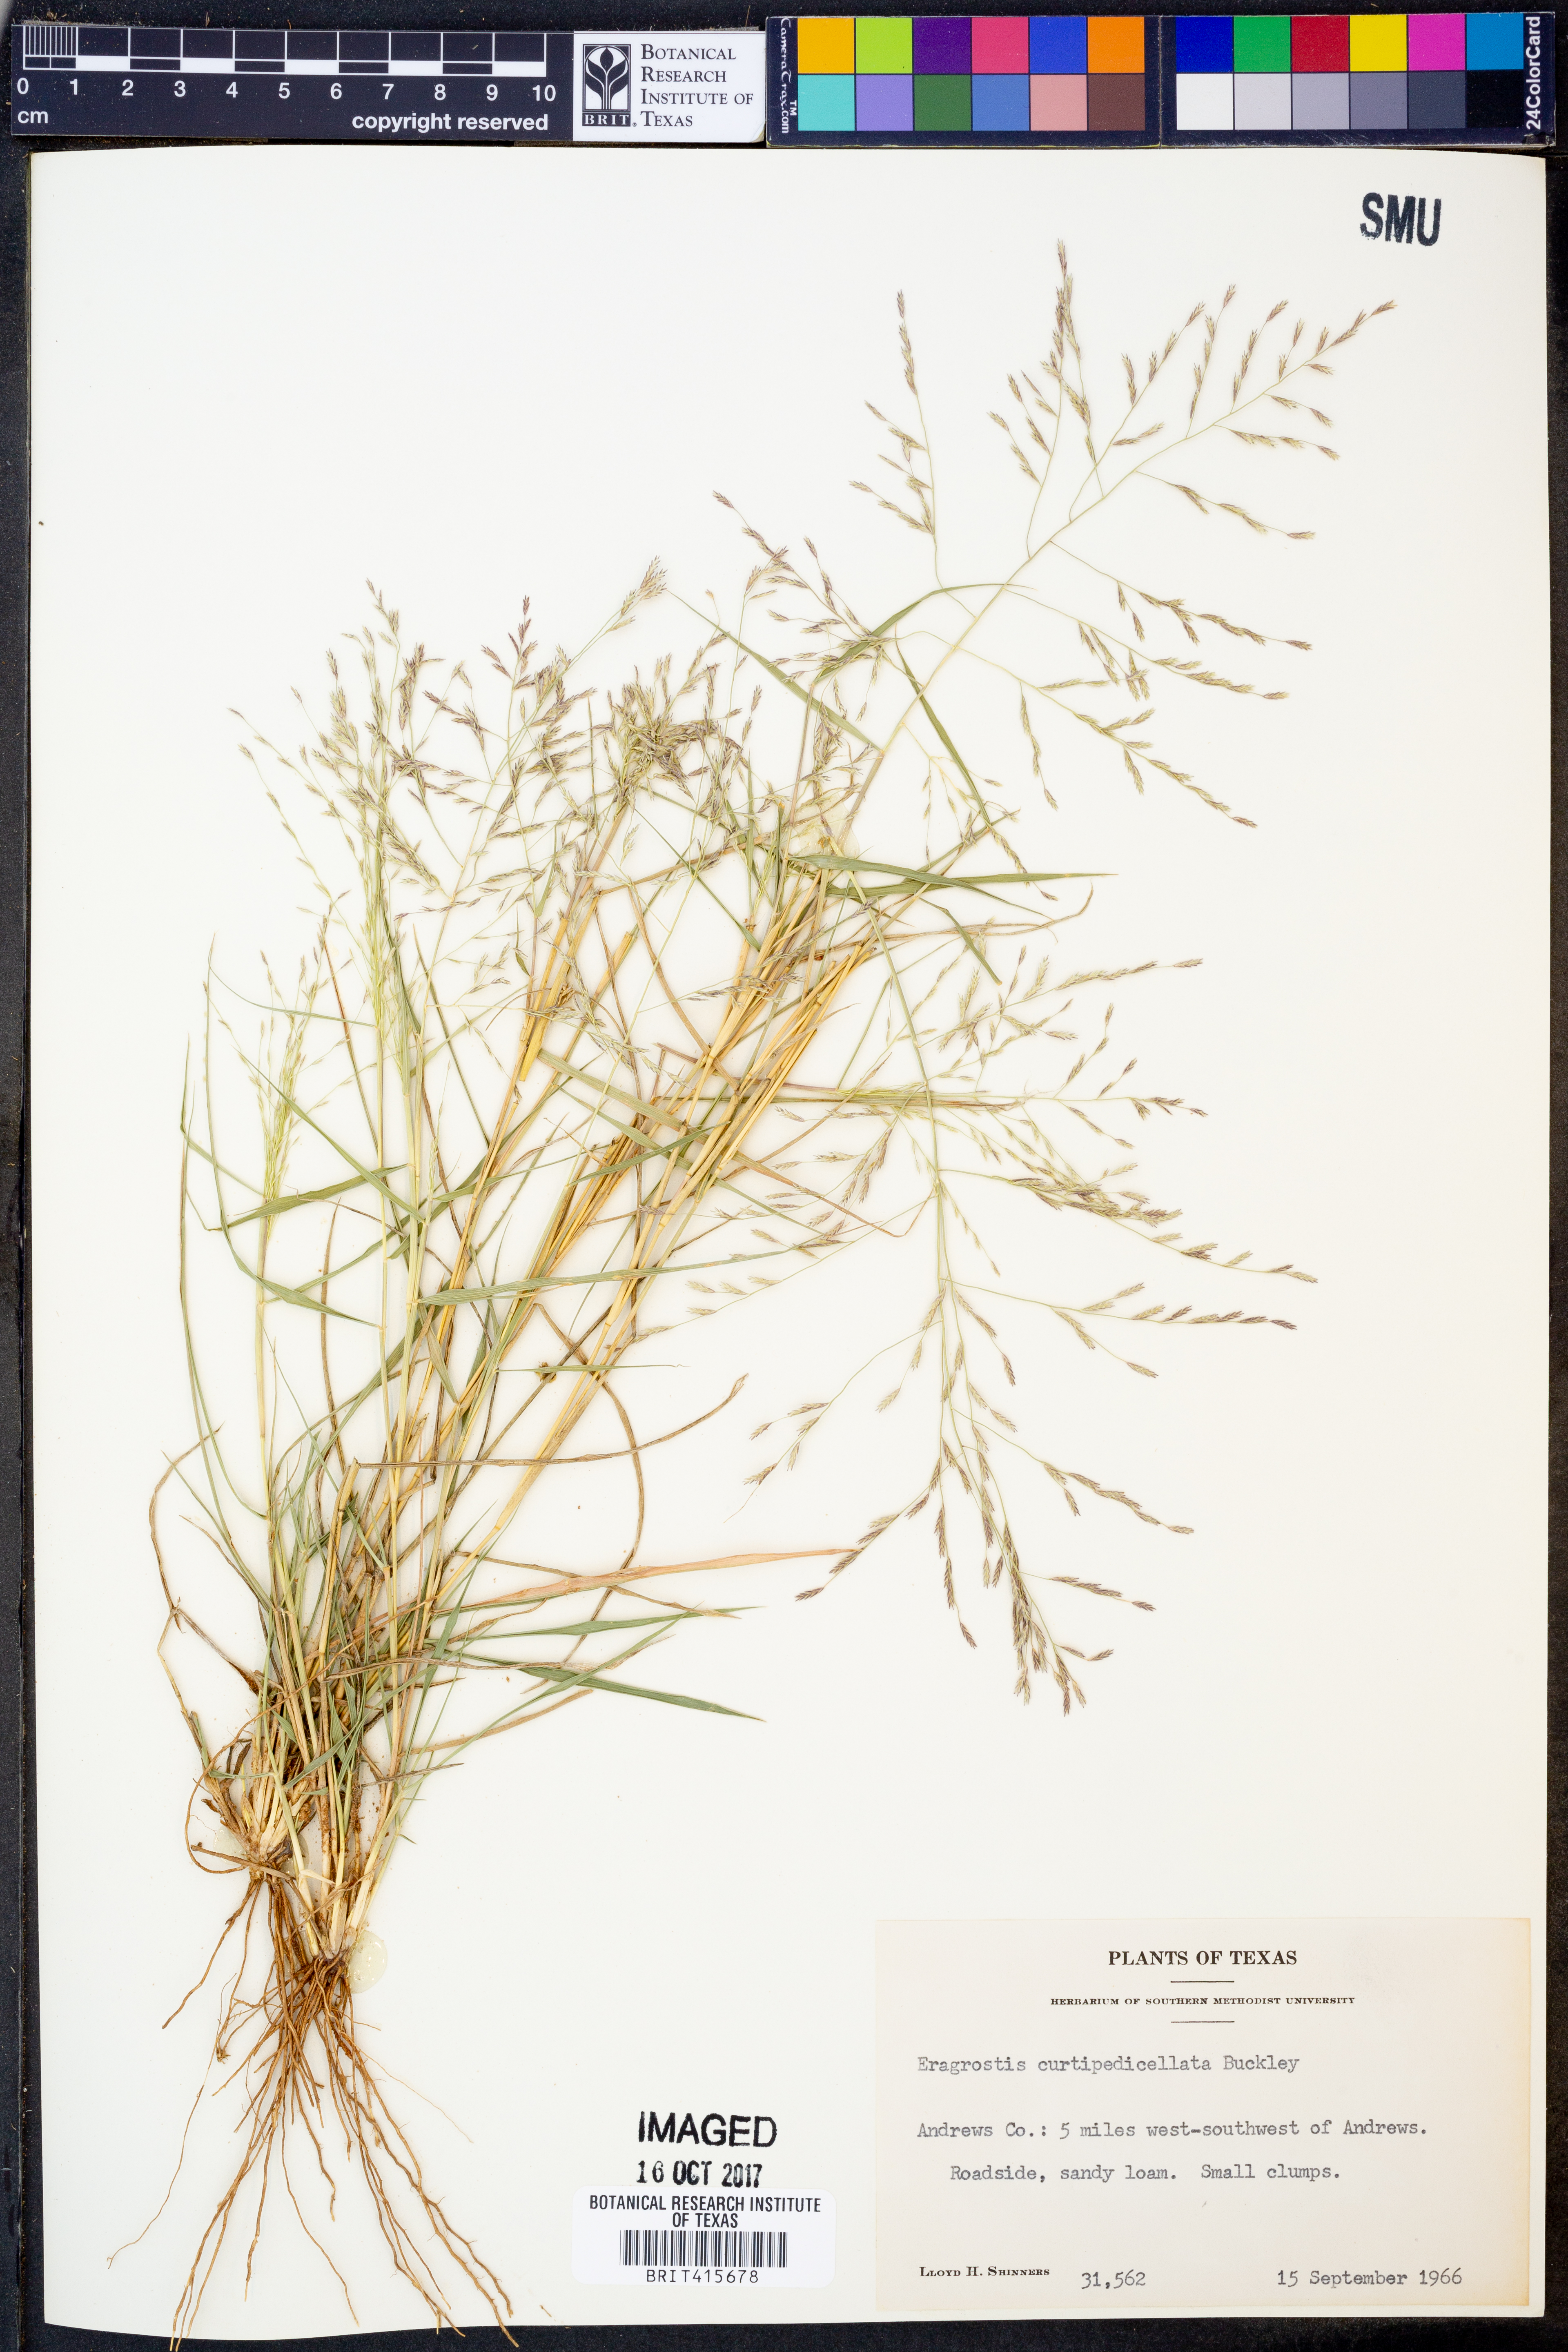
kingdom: Plantae
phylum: Tracheophyta
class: Liliopsida
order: Poales
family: Poaceae
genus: Eragrostis
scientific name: Eragrostis curtipedicellata
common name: Gummy love grass
